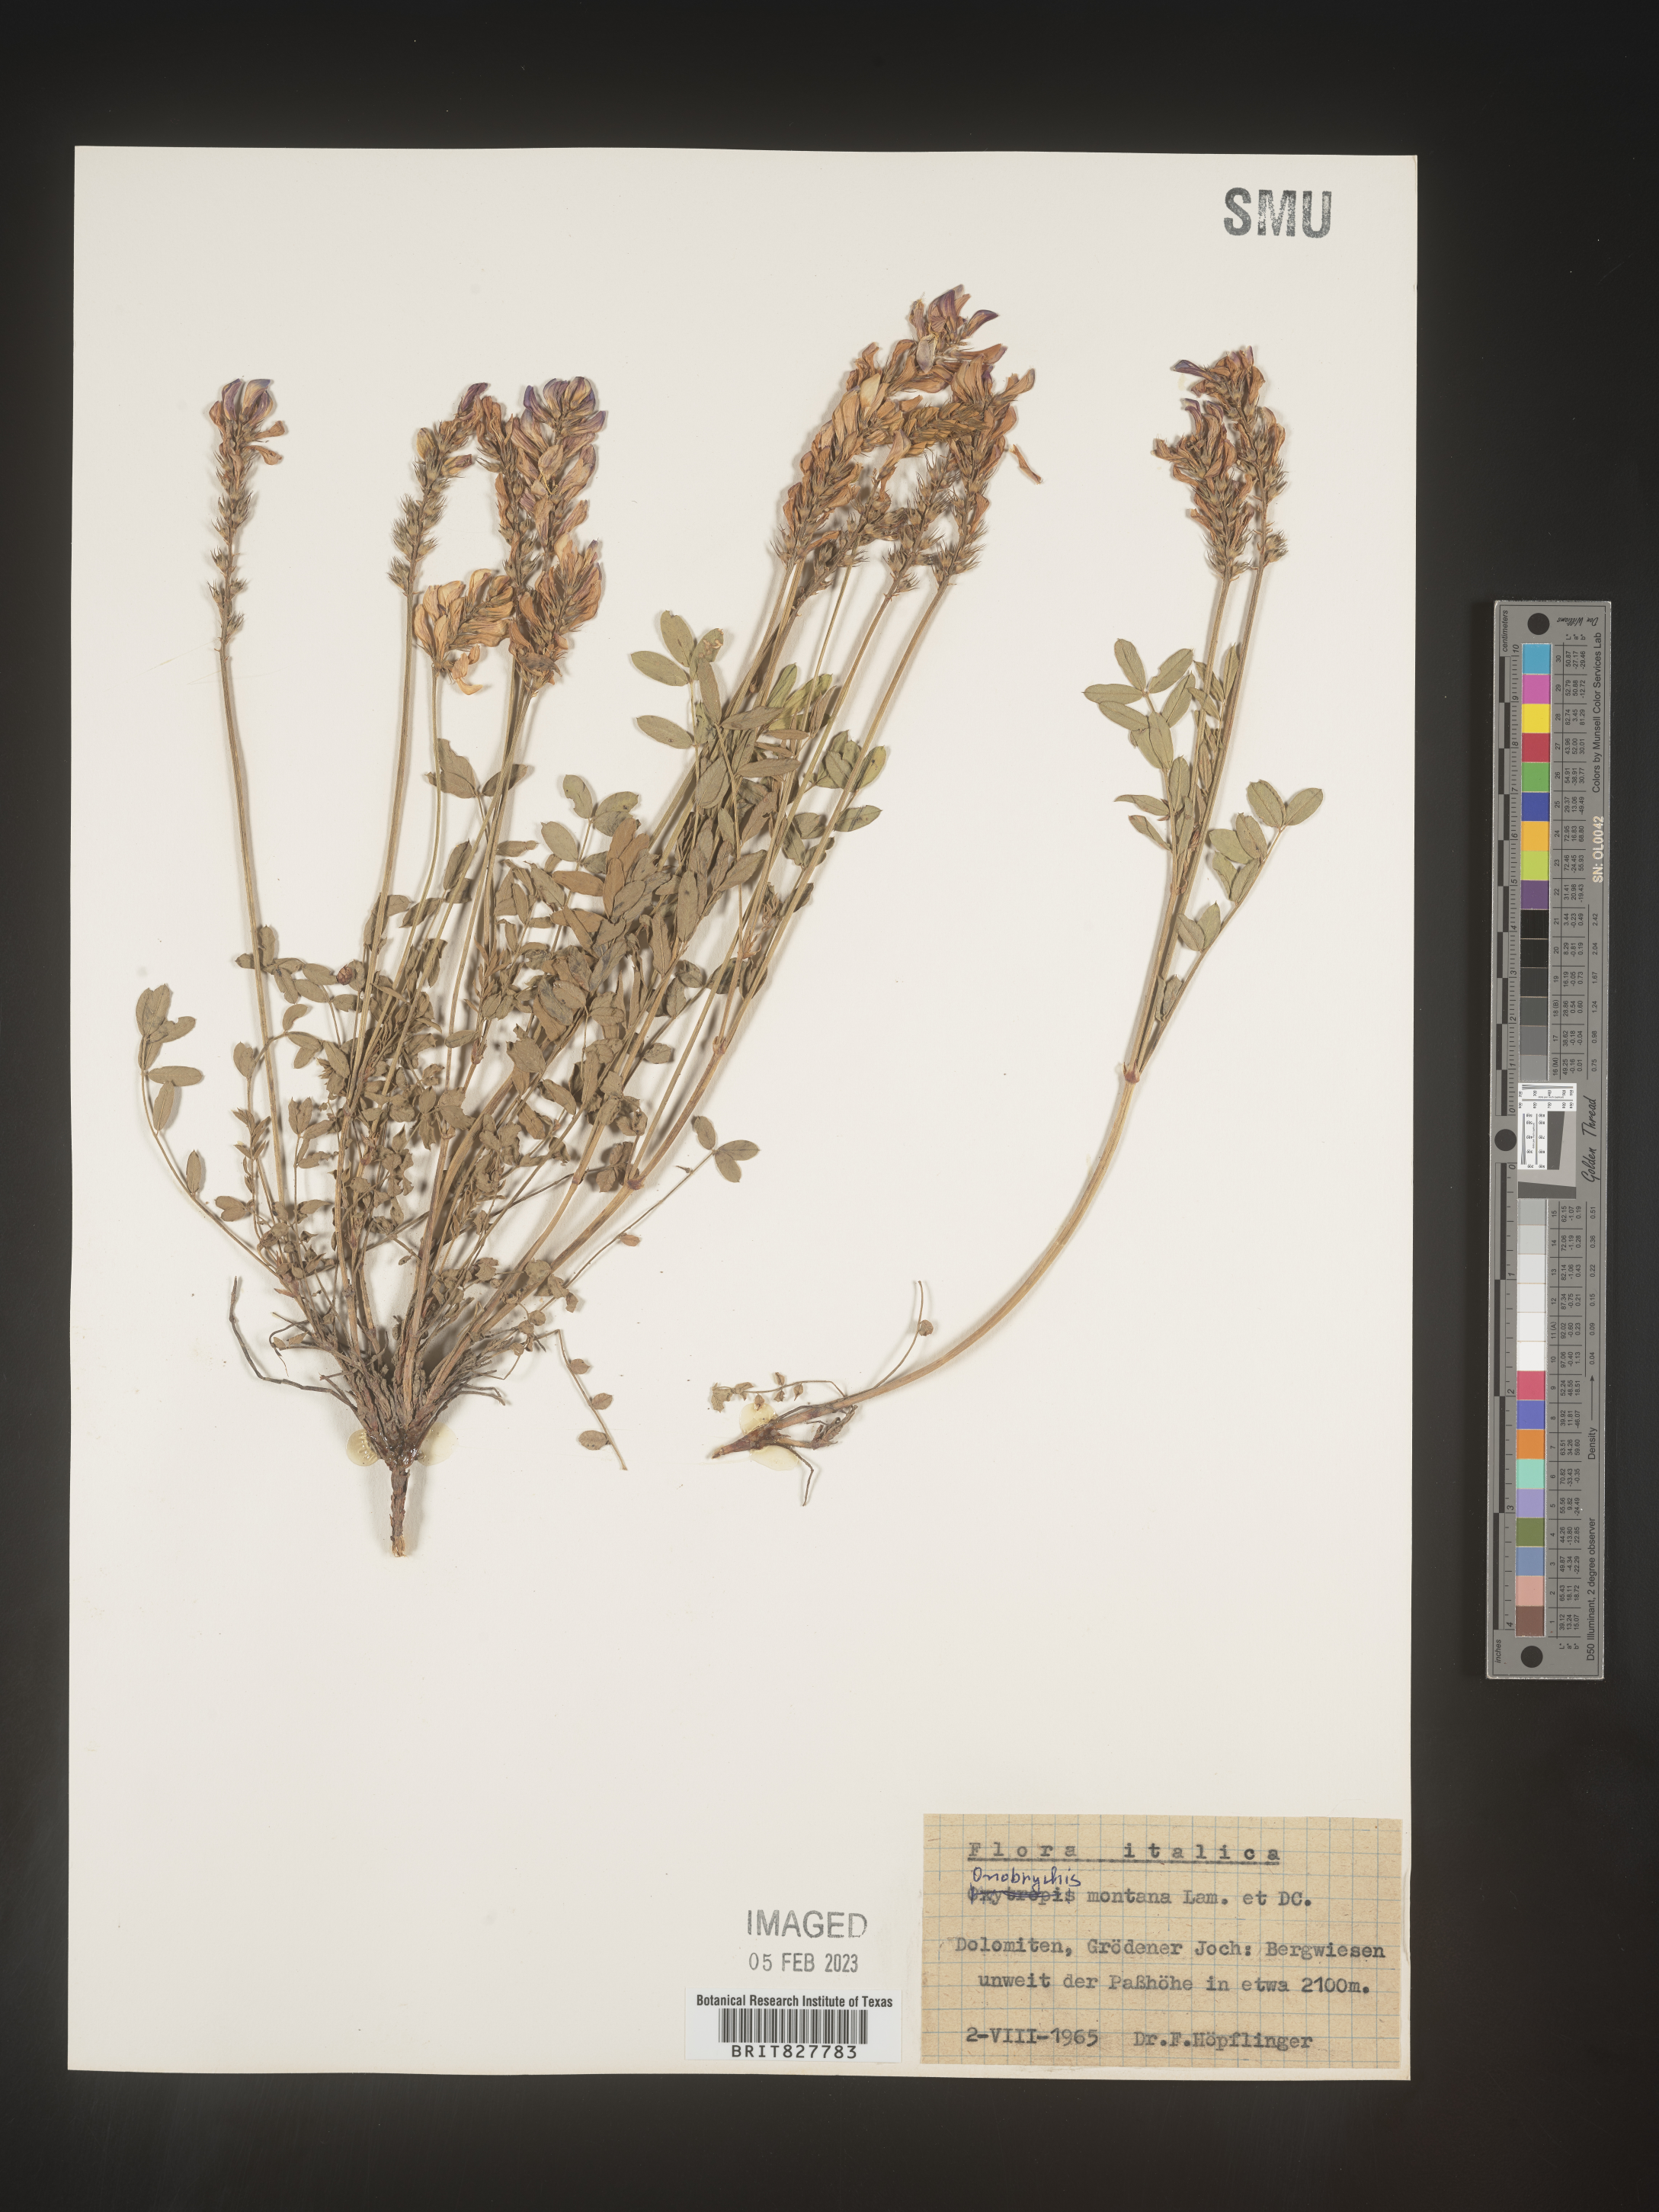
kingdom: Plantae
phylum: Tracheophyta
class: Magnoliopsida
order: Fabales
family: Fabaceae
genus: Onobrychis
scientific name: Onobrychis
